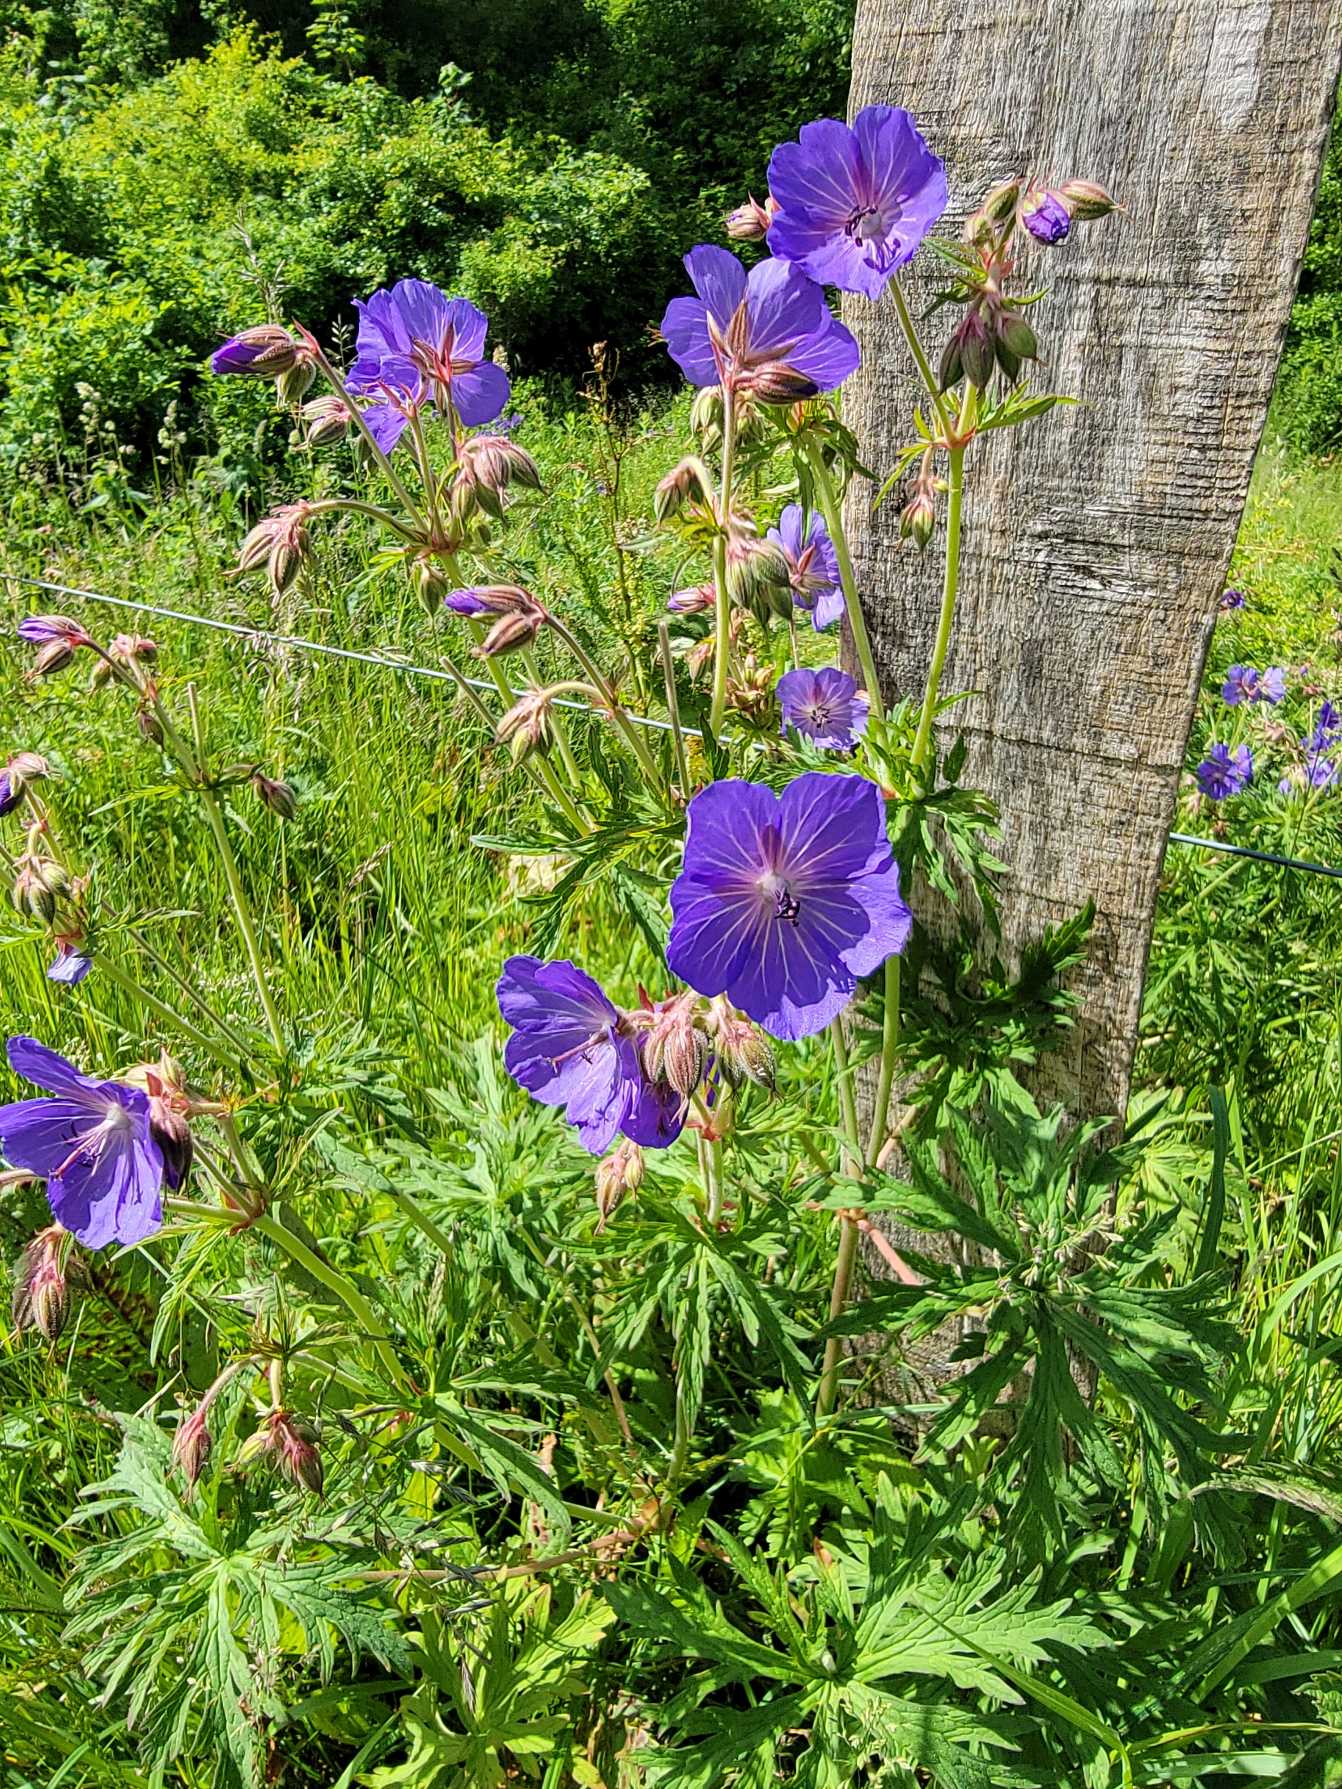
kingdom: Plantae
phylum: Tracheophyta
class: Magnoliopsida
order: Geraniales
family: Geraniaceae
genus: Geranium
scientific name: Geranium pratense
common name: Eng-storkenæb
